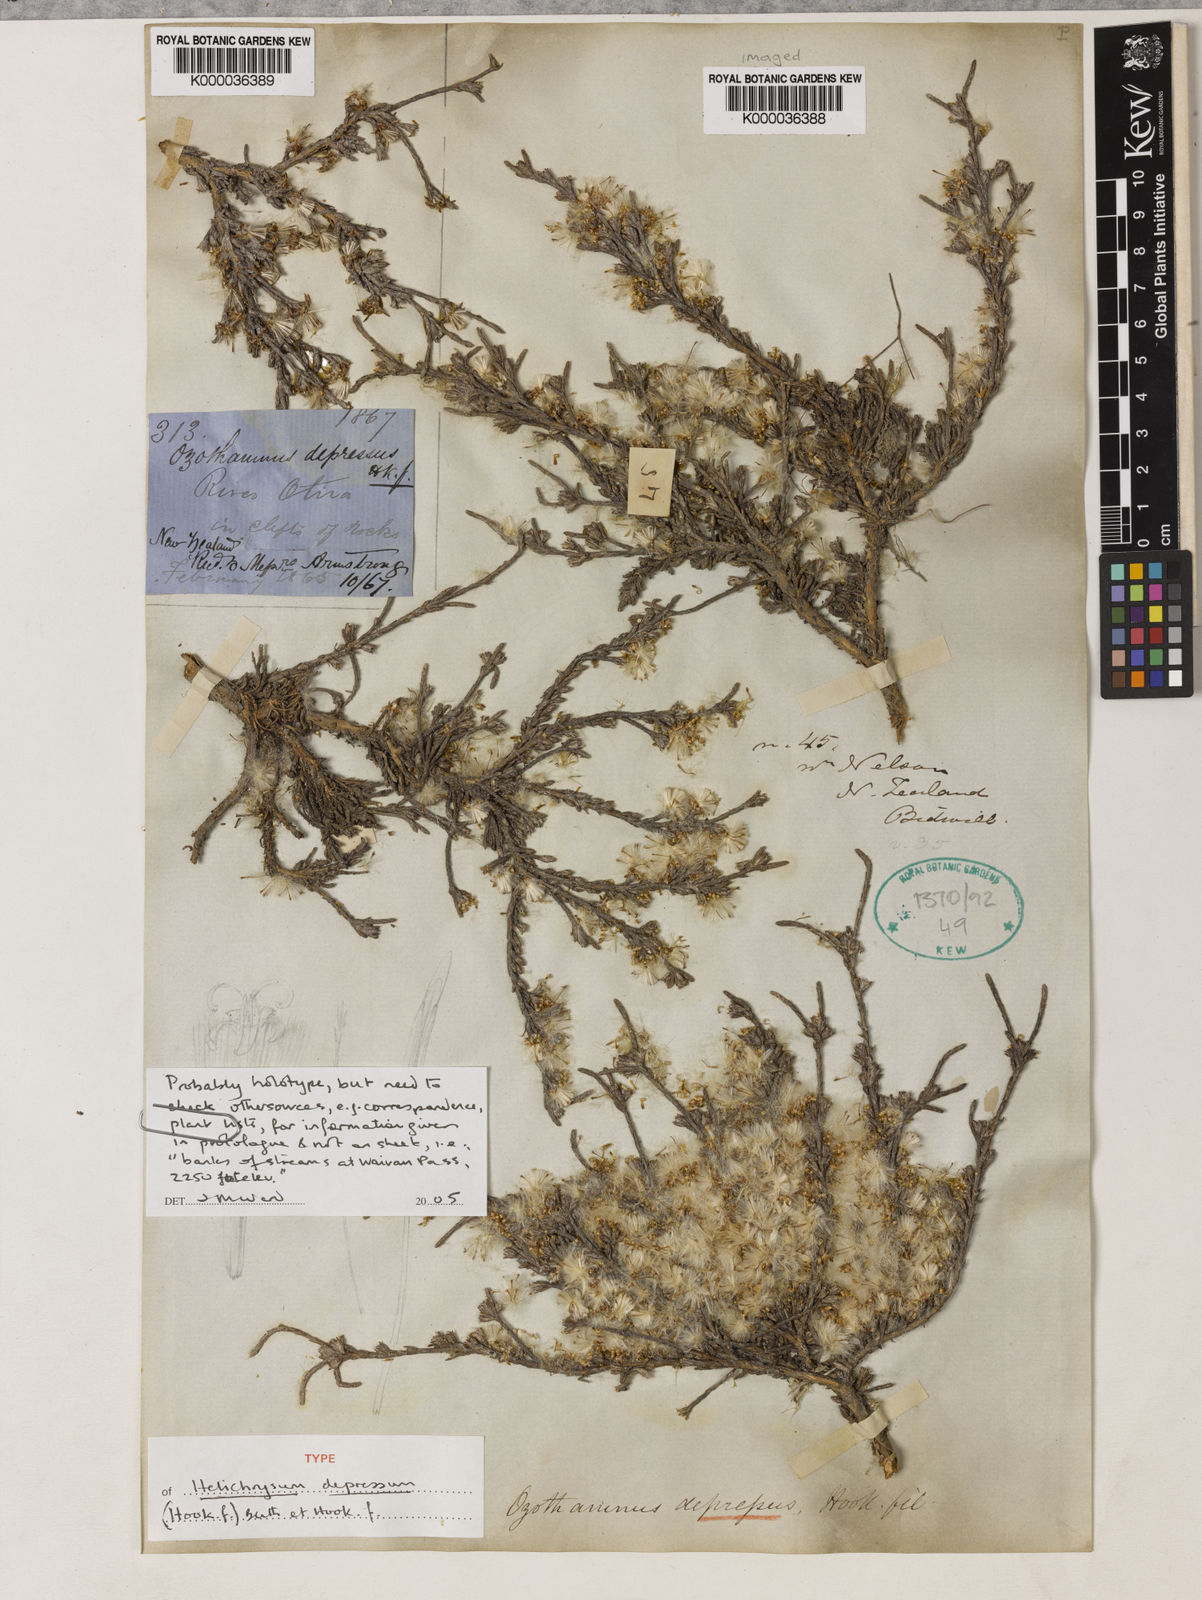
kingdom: Plantae
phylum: Tracheophyta
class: Magnoliopsida
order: Asterales
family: Asteraceae
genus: Ozothamnus
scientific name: Ozothamnus depressus
